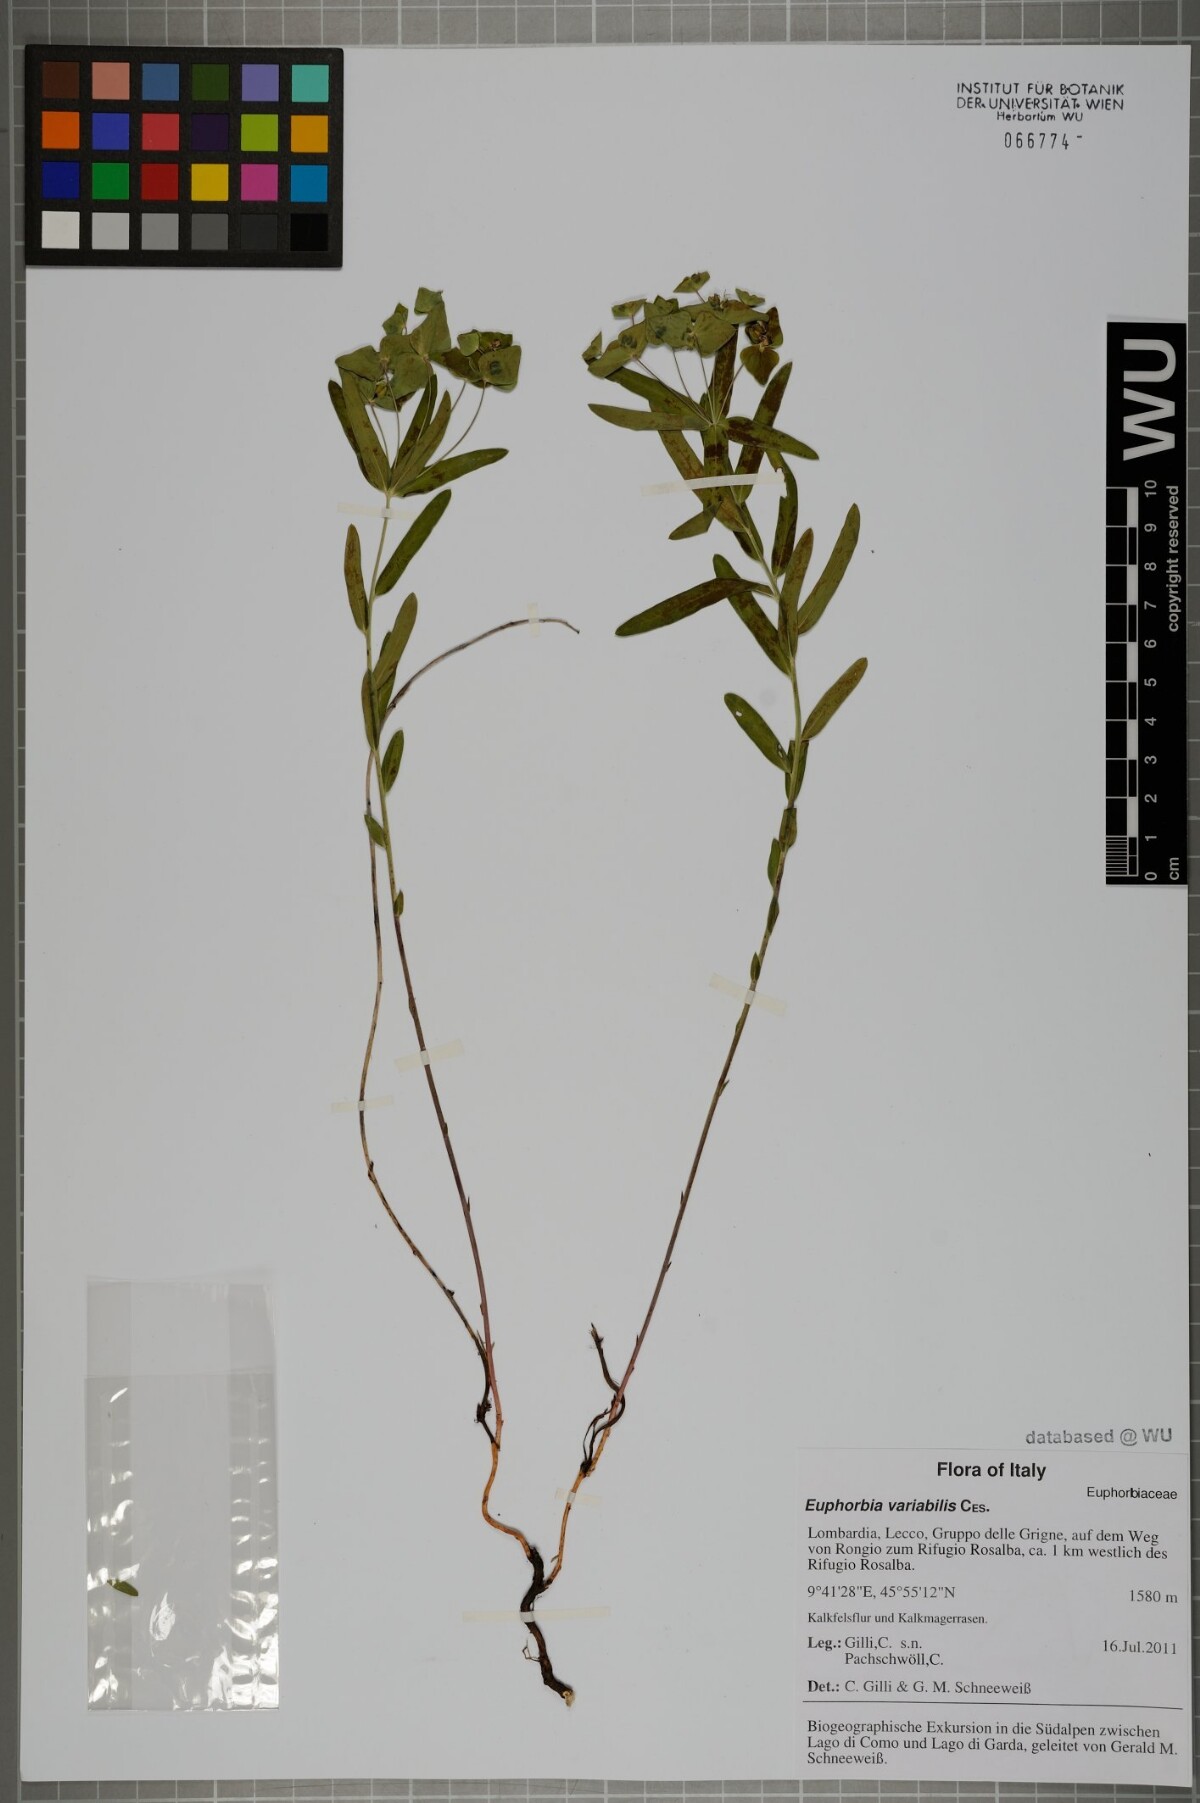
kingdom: Plantae
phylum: Tracheophyta
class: Magnoliopsida
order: Malpighiales
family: Euphorbiaceae
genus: Euphorbia
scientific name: Euphorbia variabilis
